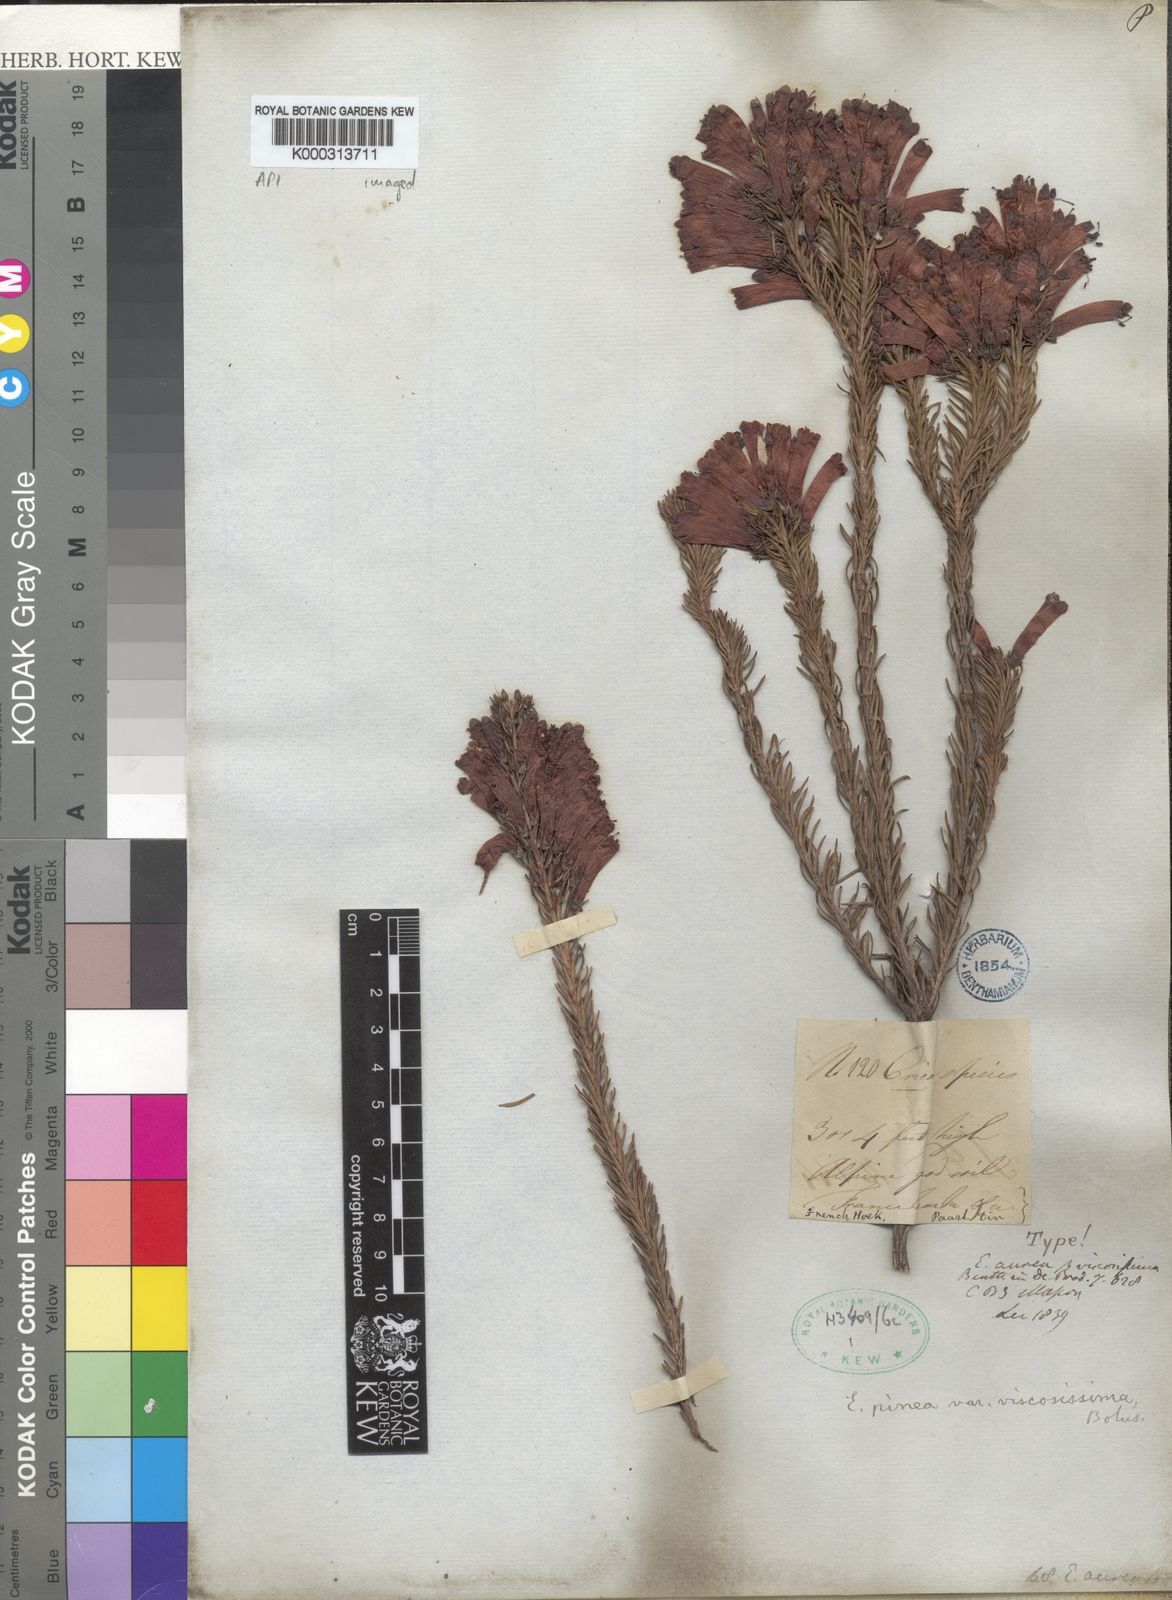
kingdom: Plantae
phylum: Tracheophyta
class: Magnoliopsida
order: Ericales
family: Ericaceae
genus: Erica
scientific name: Erica viscaria
